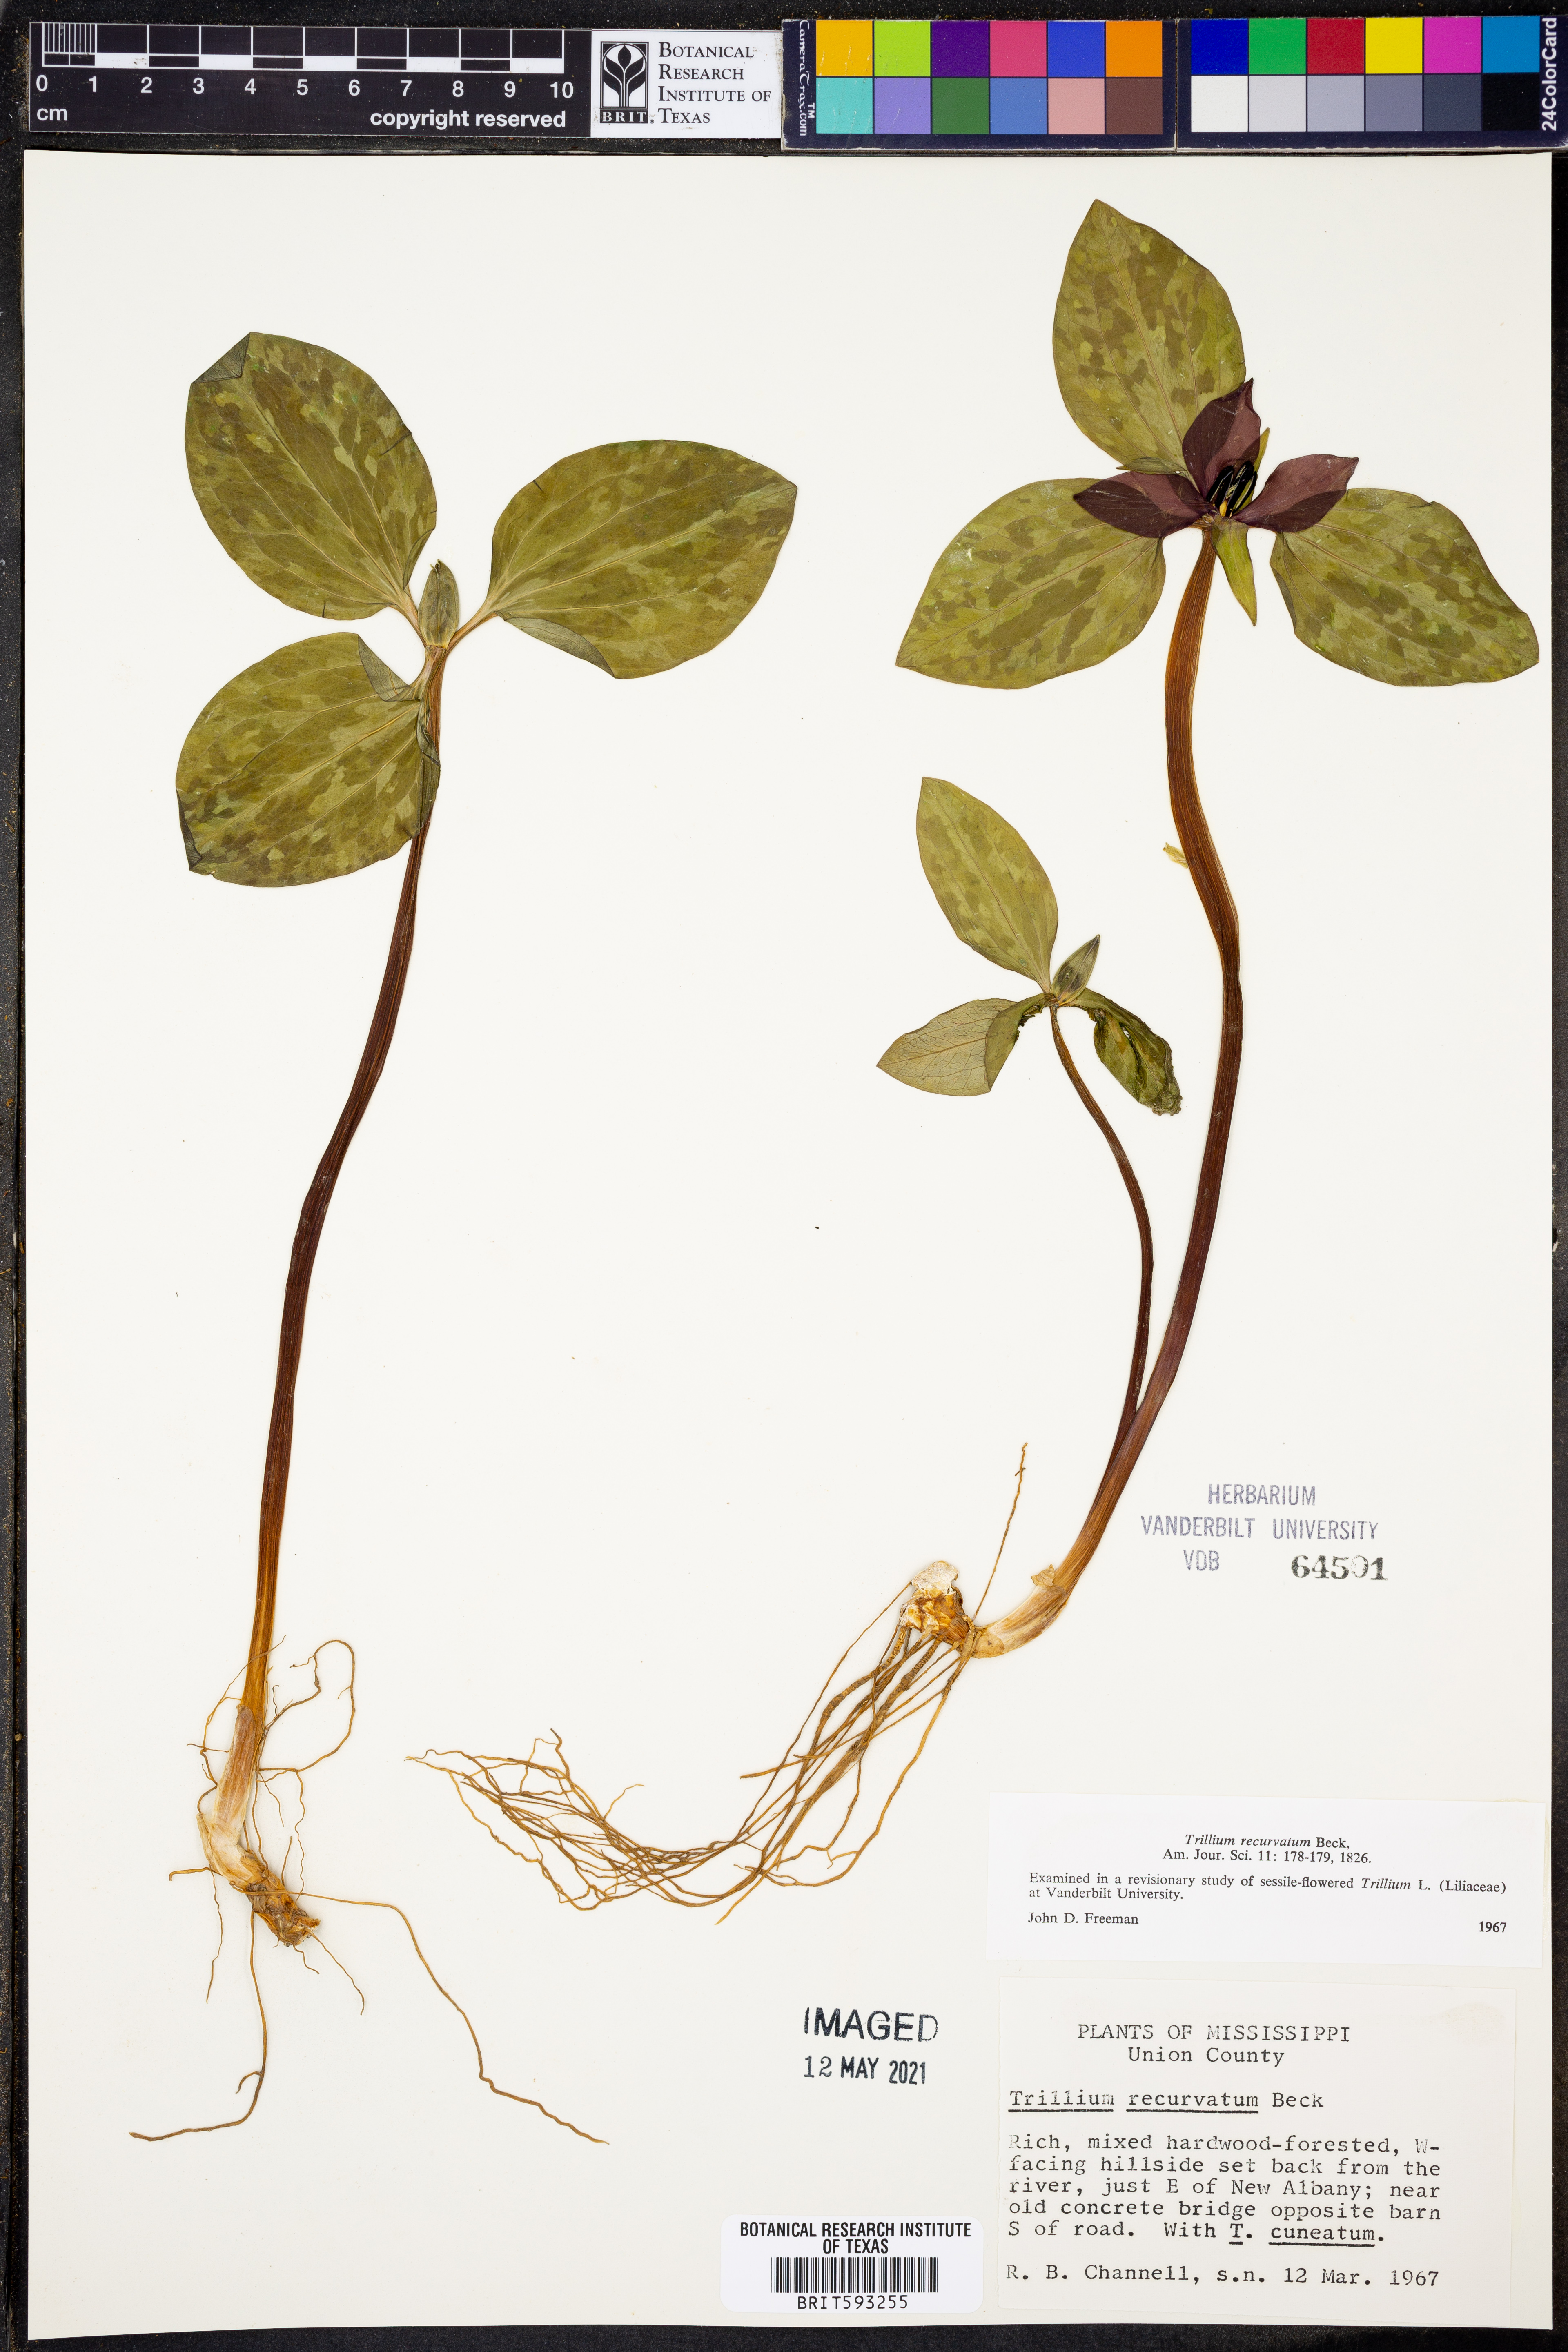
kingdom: Plantae
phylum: Tracheophyta
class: Liliopsida
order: Liliales
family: Melanthiaceae
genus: Trillium
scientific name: Trillium recurvatum
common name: Bloody butcher
